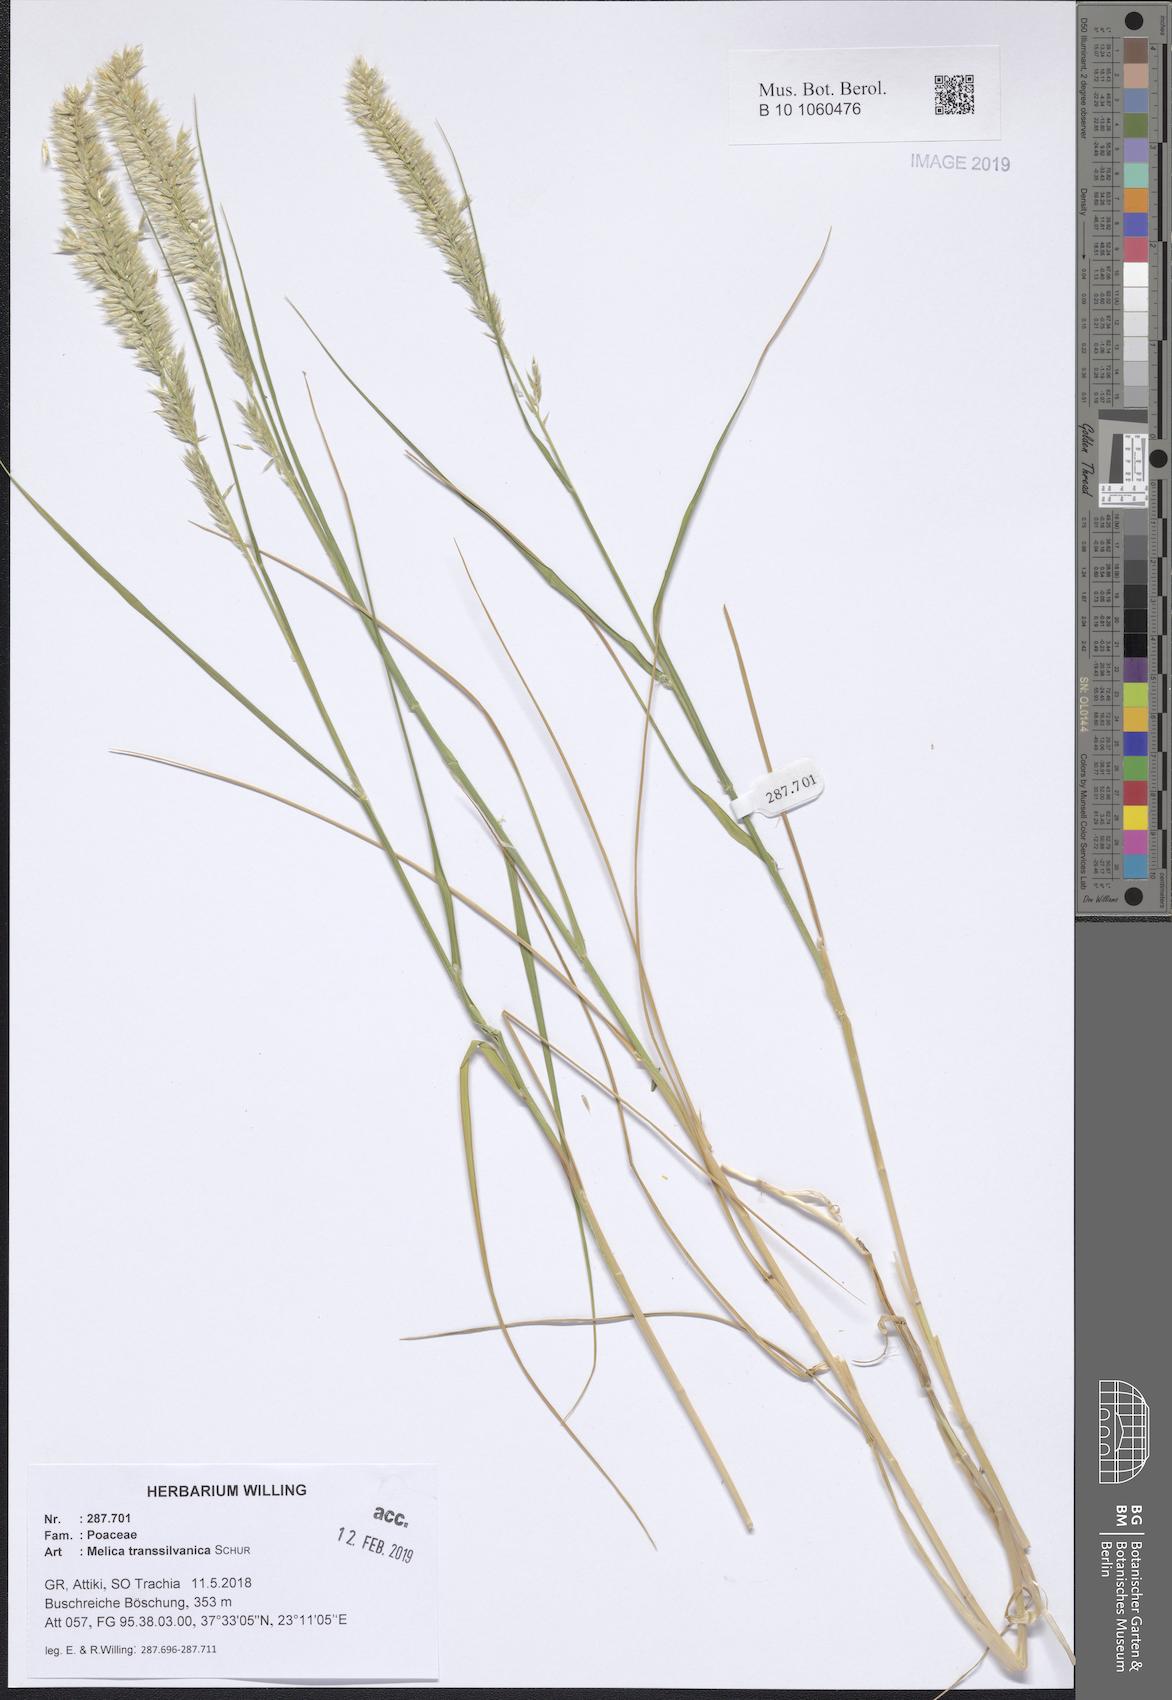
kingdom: Plantae
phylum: Tracheophyta
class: Liliopsida
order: Poales
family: Poaceae
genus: Melica
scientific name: Melica transsilvanica
